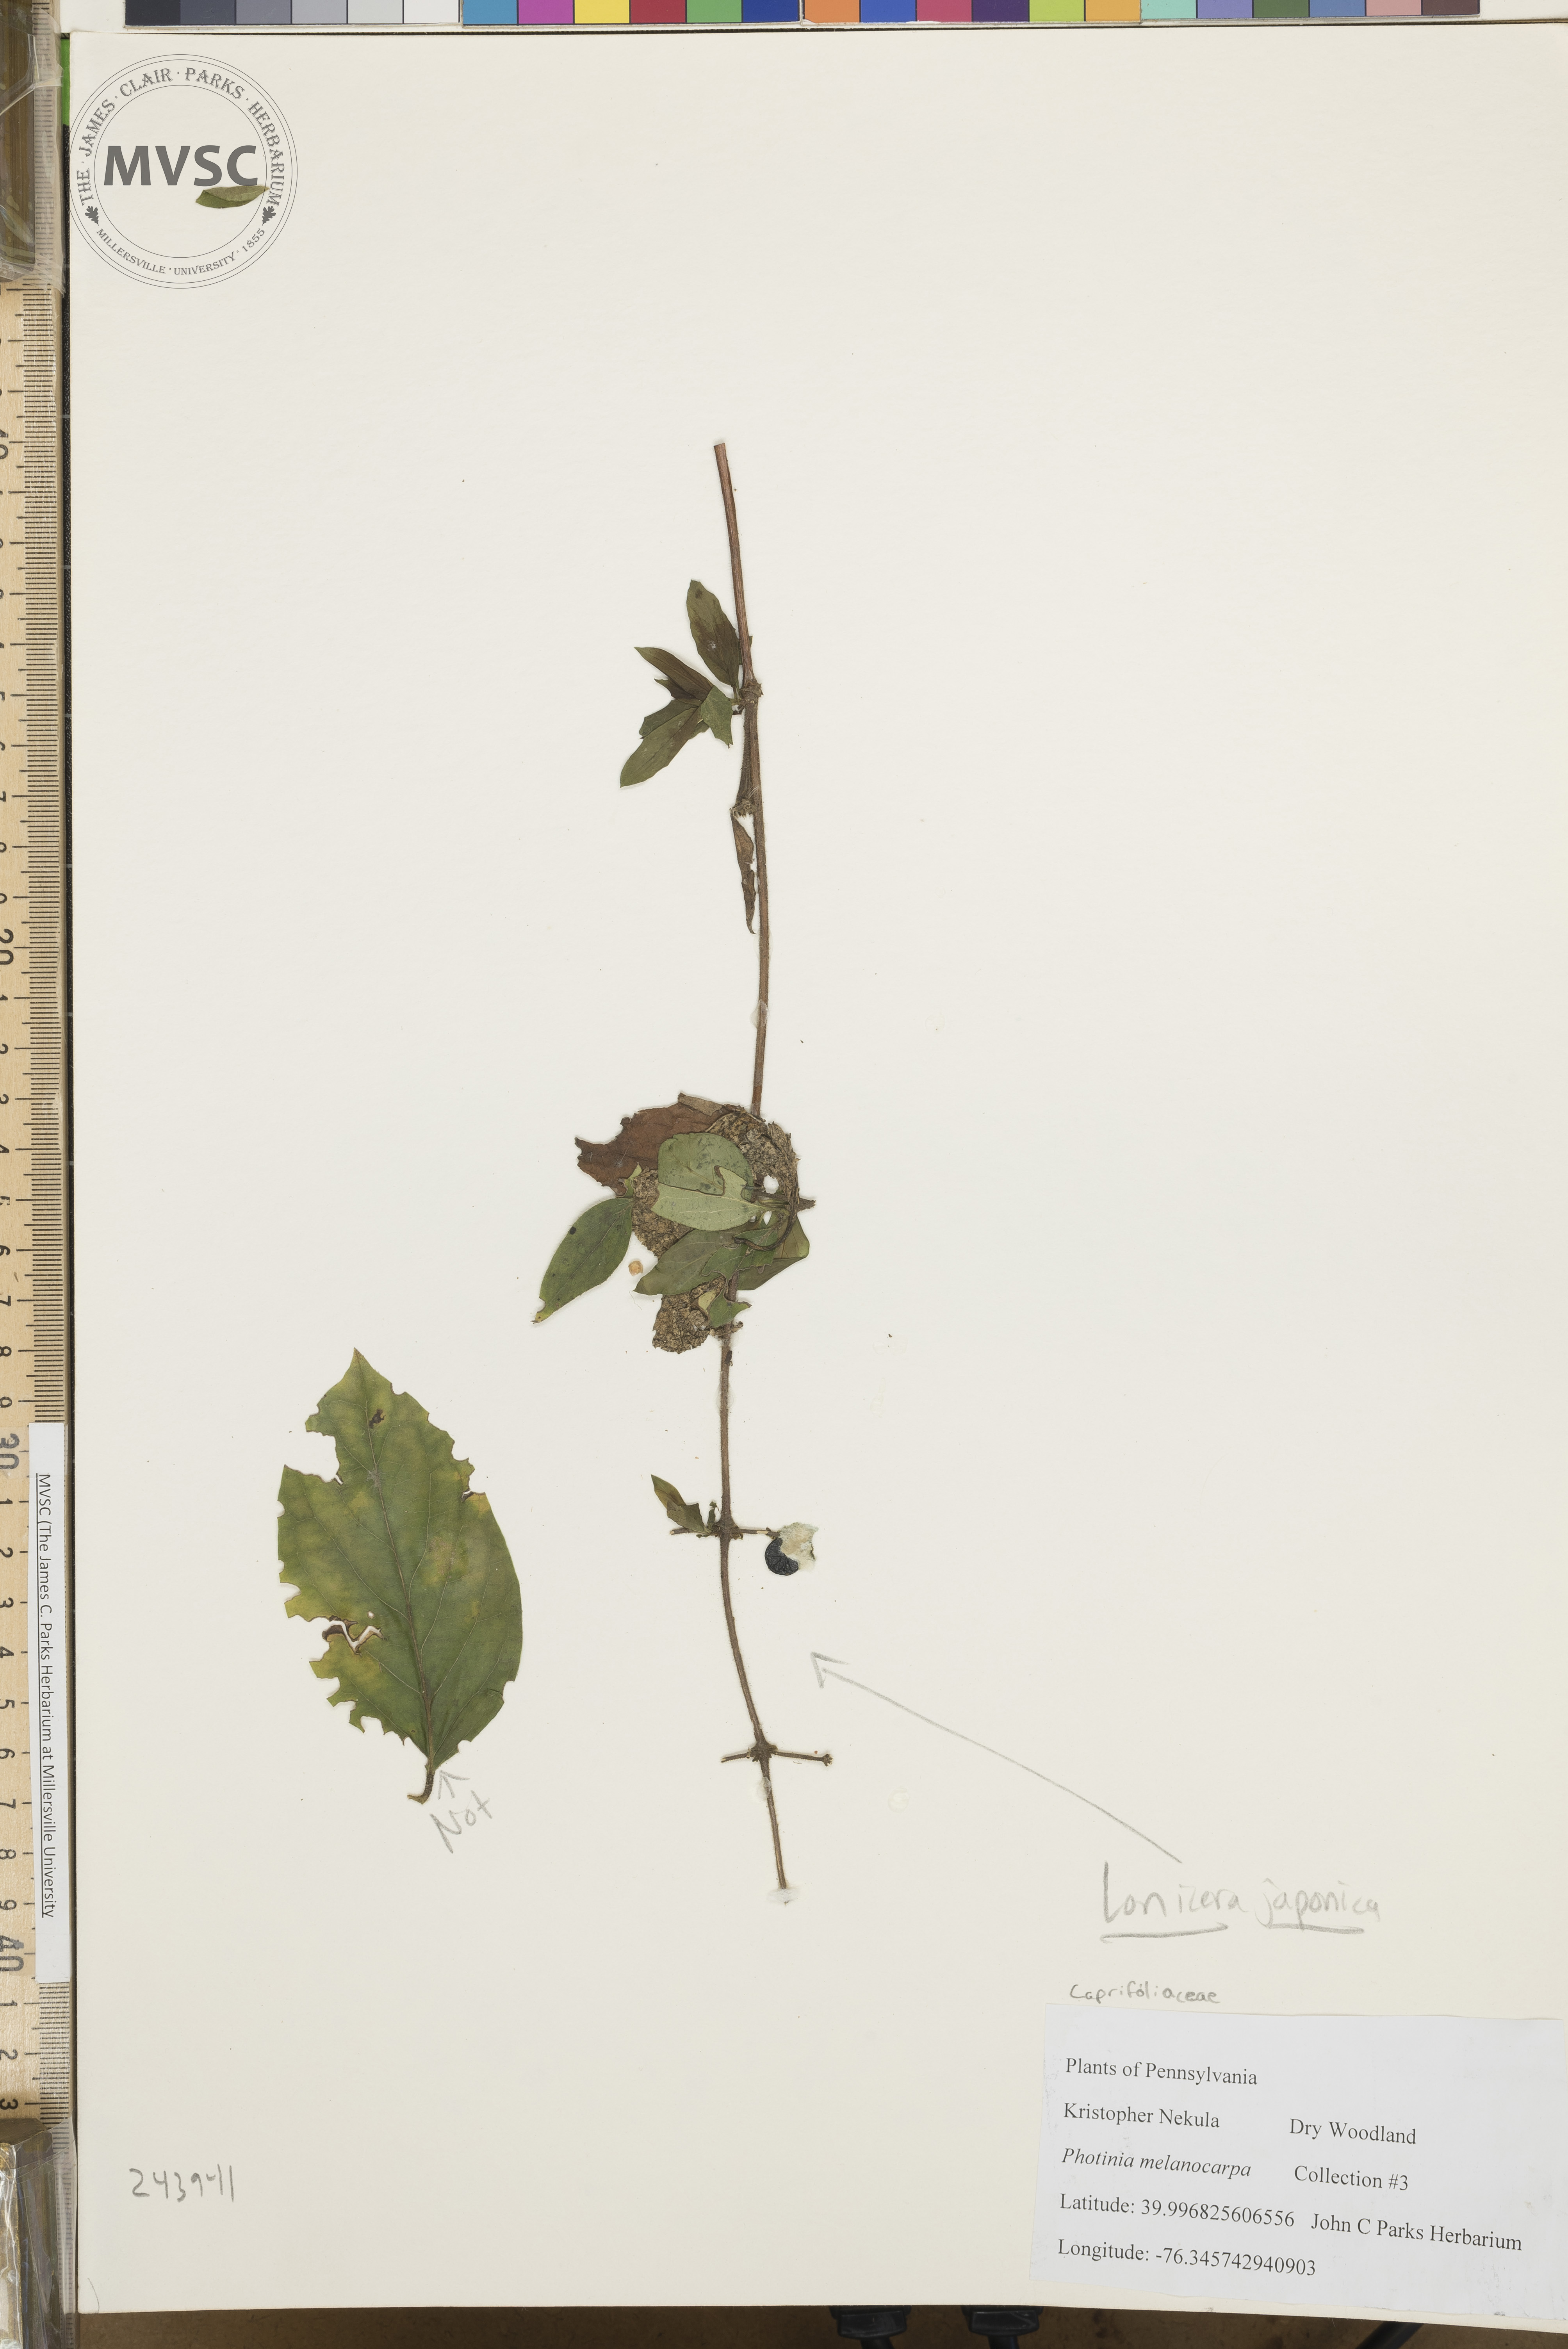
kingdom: Plantae
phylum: Tracheophyta
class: Magnoliopsida
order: Dipsacales
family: Caprifoliaceae
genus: Lonicera
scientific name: Lonicera japonica
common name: Japanese honeysuckle
